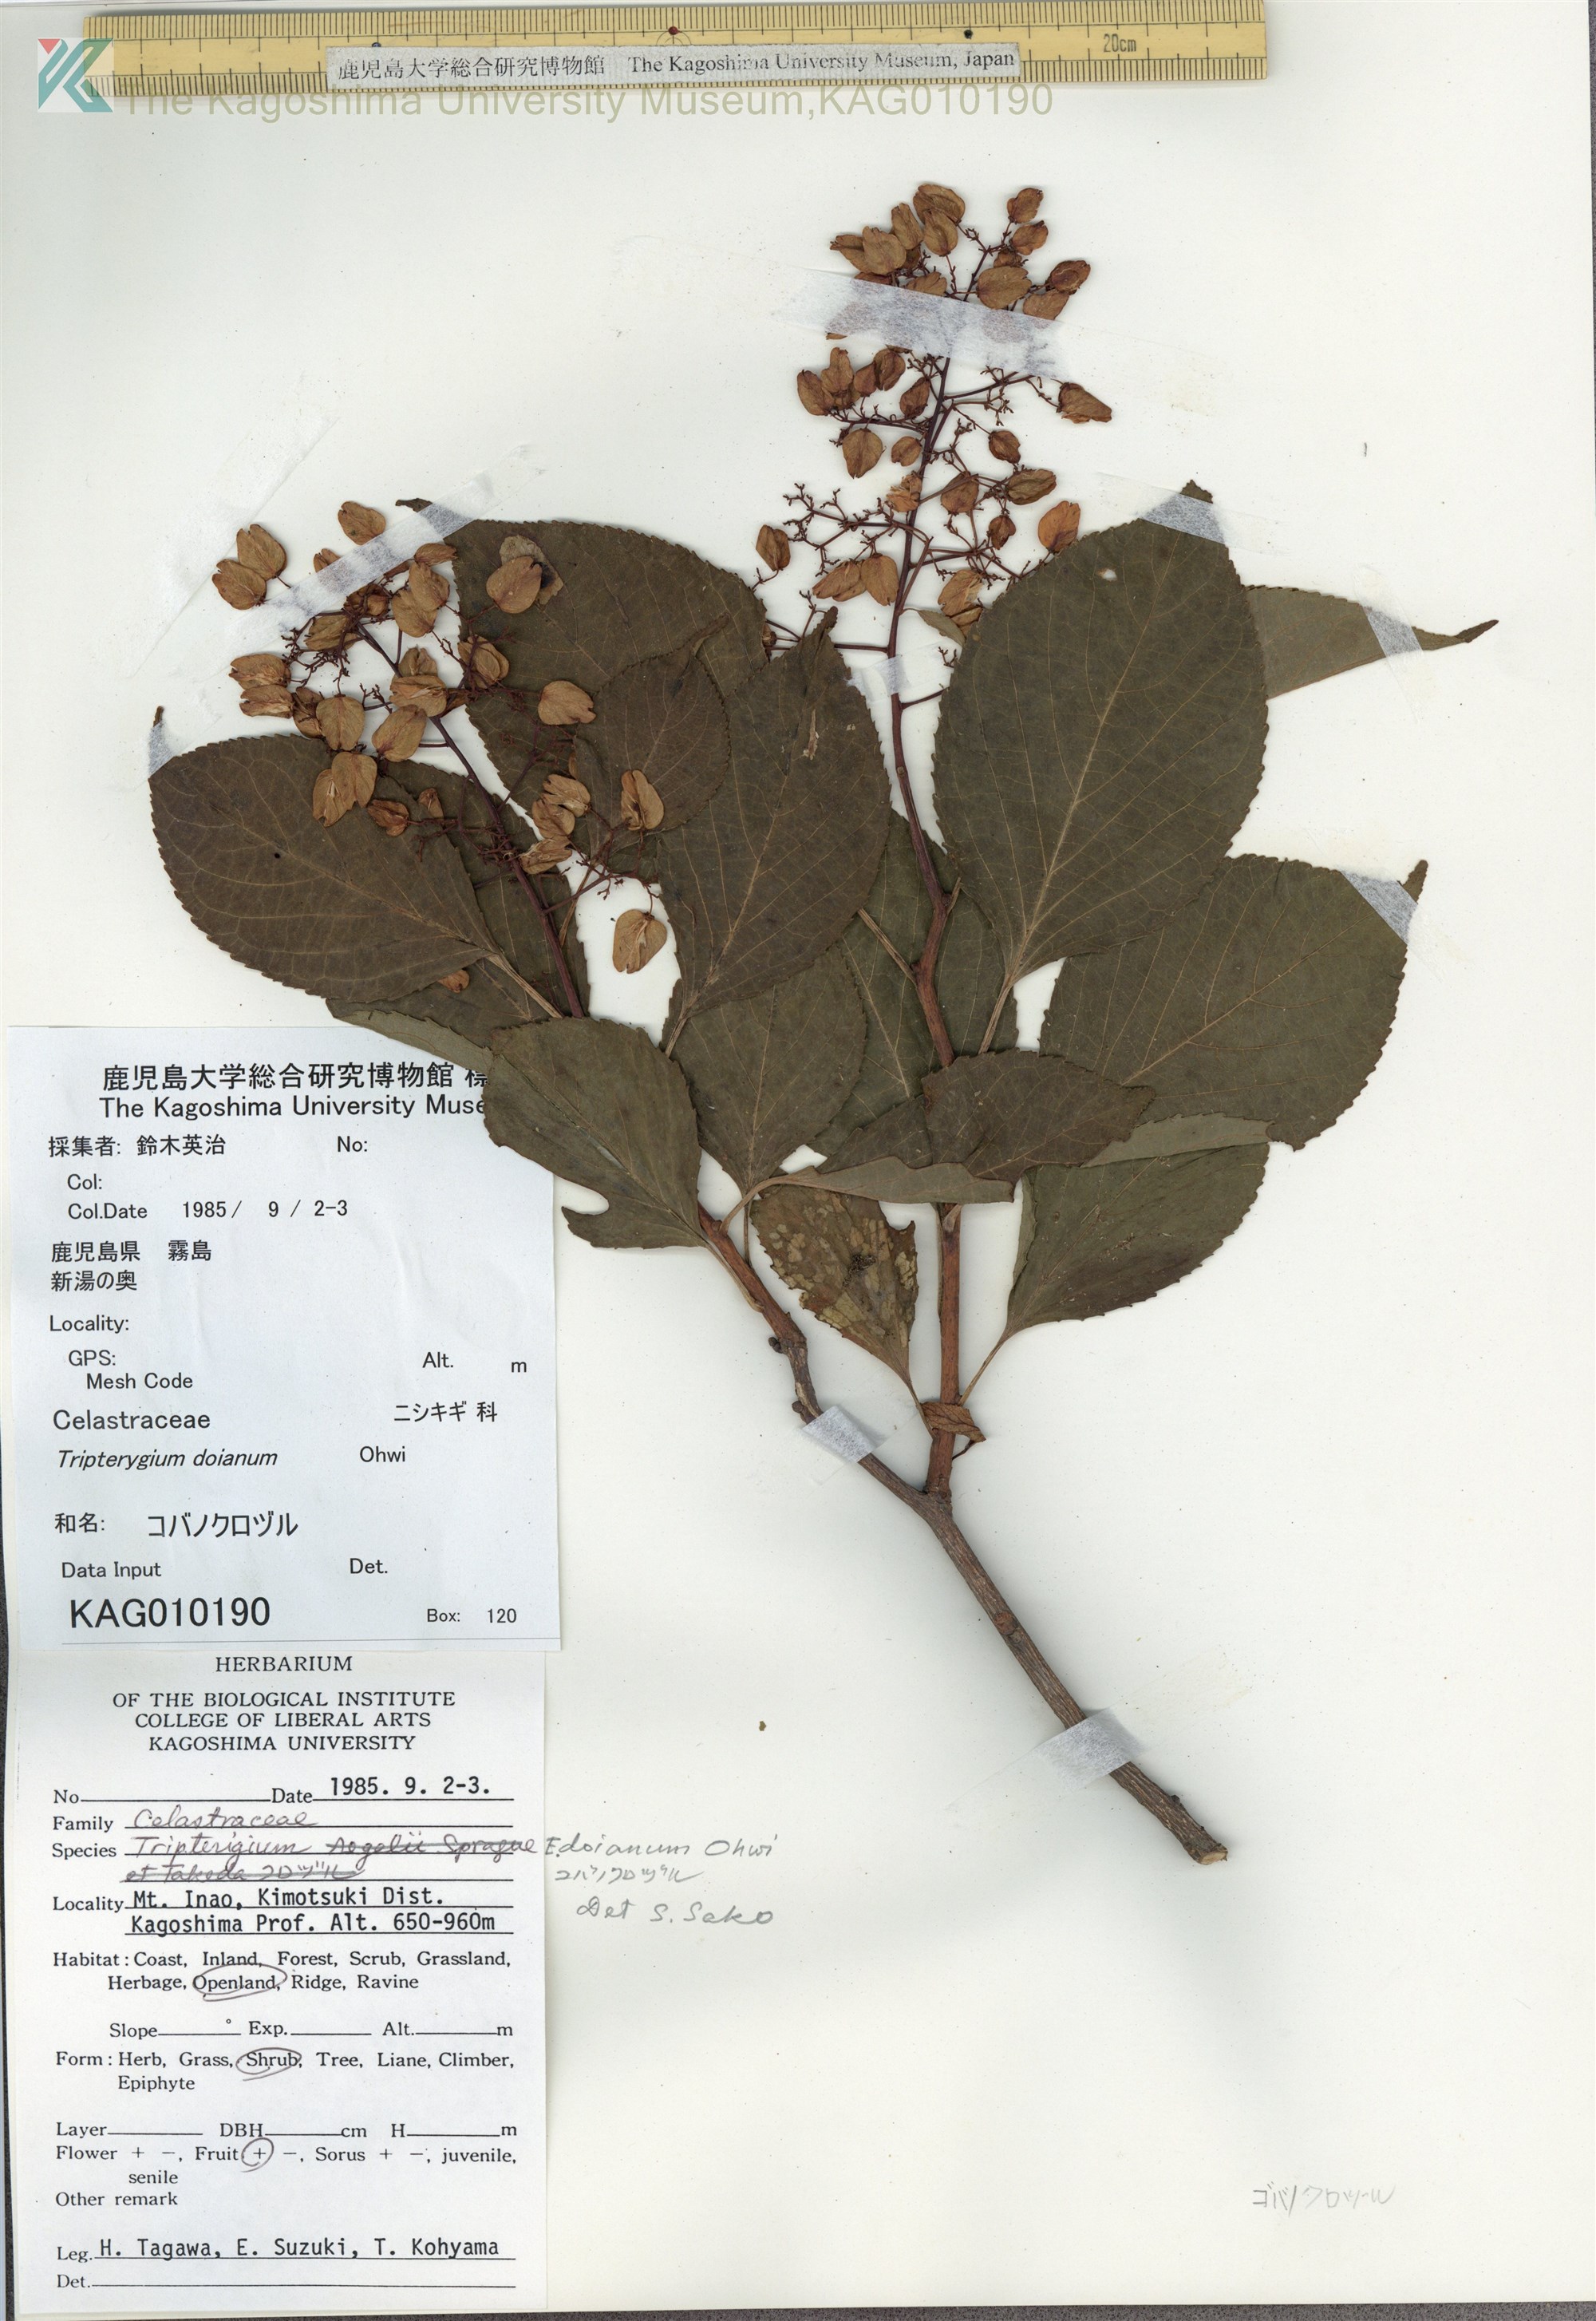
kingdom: Plantae
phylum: Tracheophyta
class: Magnoliopsida
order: Celastrales
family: Celastraceae
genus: Tripterygium
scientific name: Tripterygium doianum
